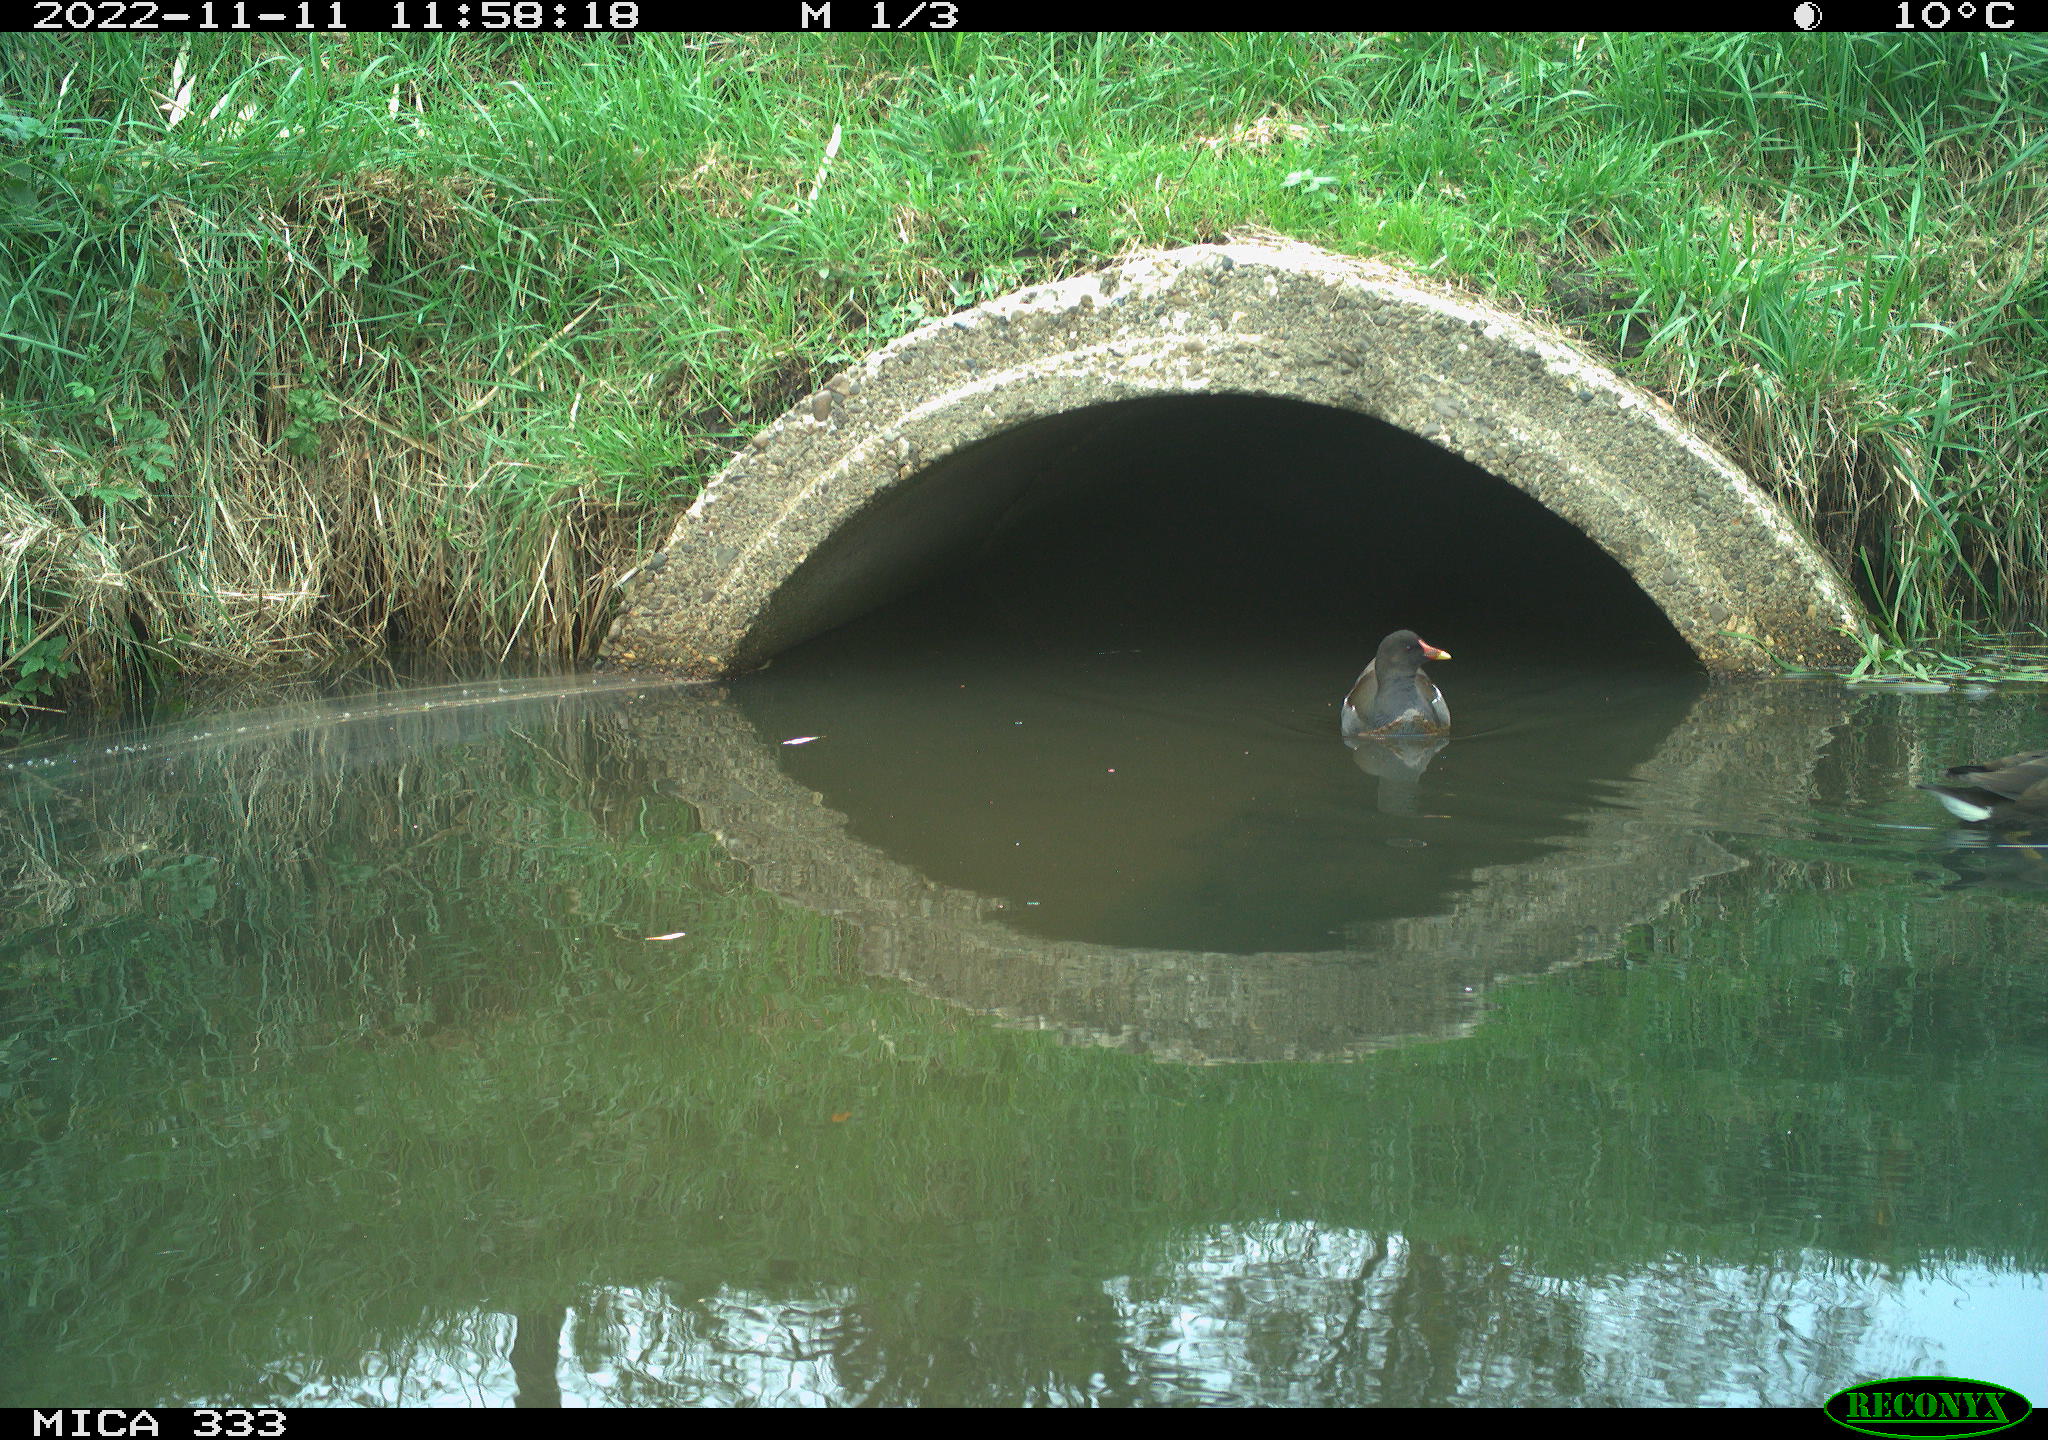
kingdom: Animalia
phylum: Chordata
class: Aves
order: Gruiformes
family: Rallidae
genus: Gallinula
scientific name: Gallinula chloropus
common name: Common moorhen
